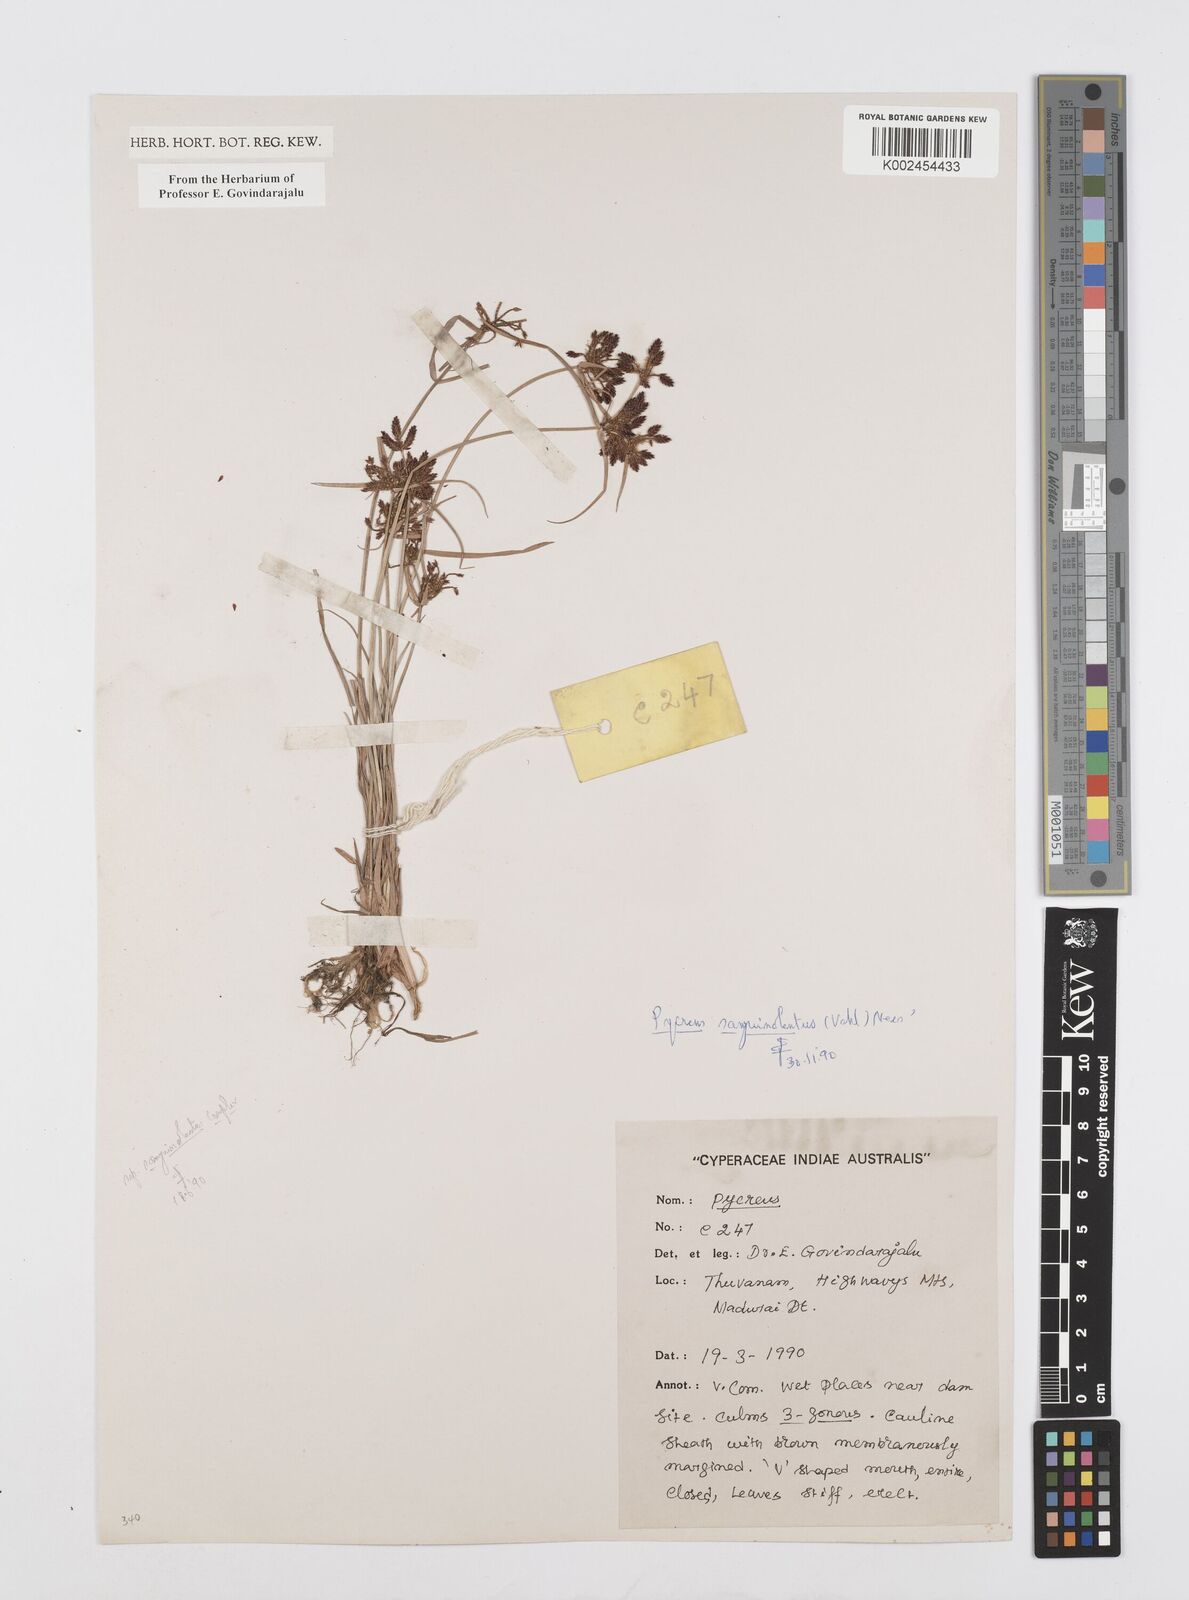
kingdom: Plantae
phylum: Tracheophyta
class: Liliopsida
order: Poales
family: Cyperaceae
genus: Cyperus
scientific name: Cyperus sanguinolentus
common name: Purpleglume flatsedge
